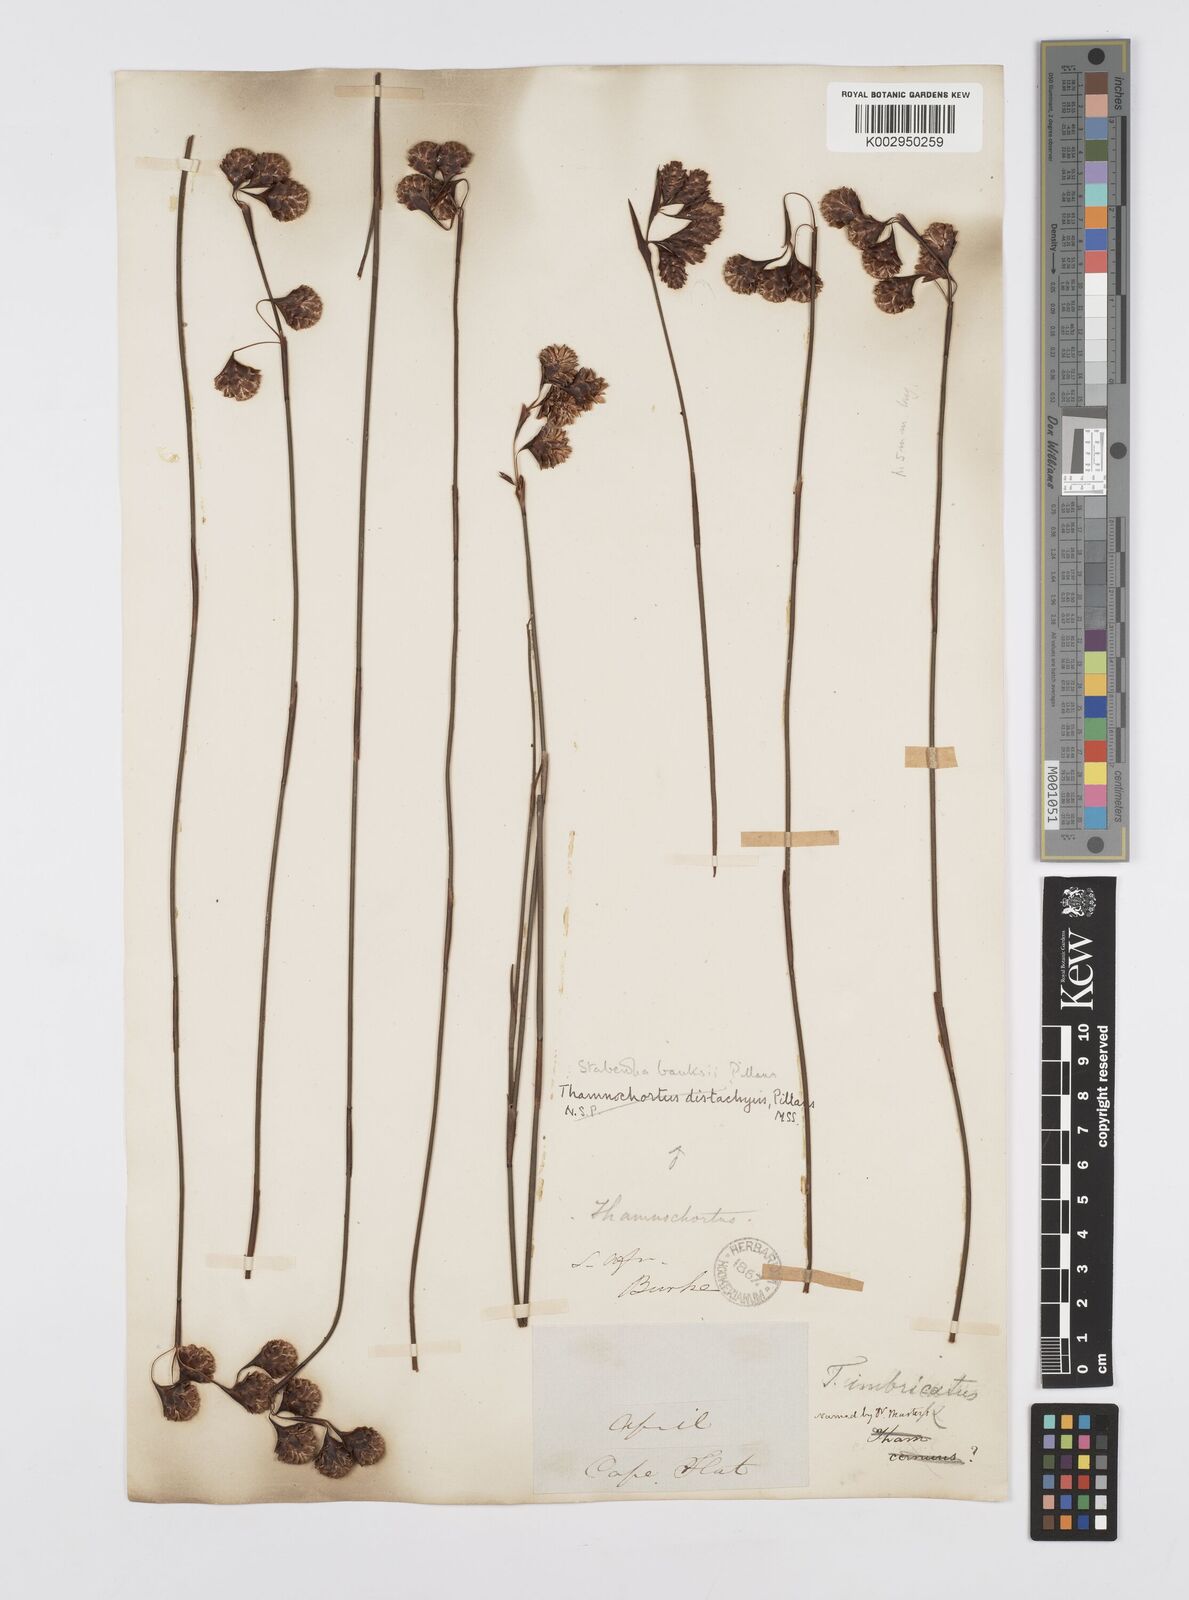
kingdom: Plantae
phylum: Tracheophyta
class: Liliopsida
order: Poales
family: Restionaceae
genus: Staberoha
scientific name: Staberoha banksii
